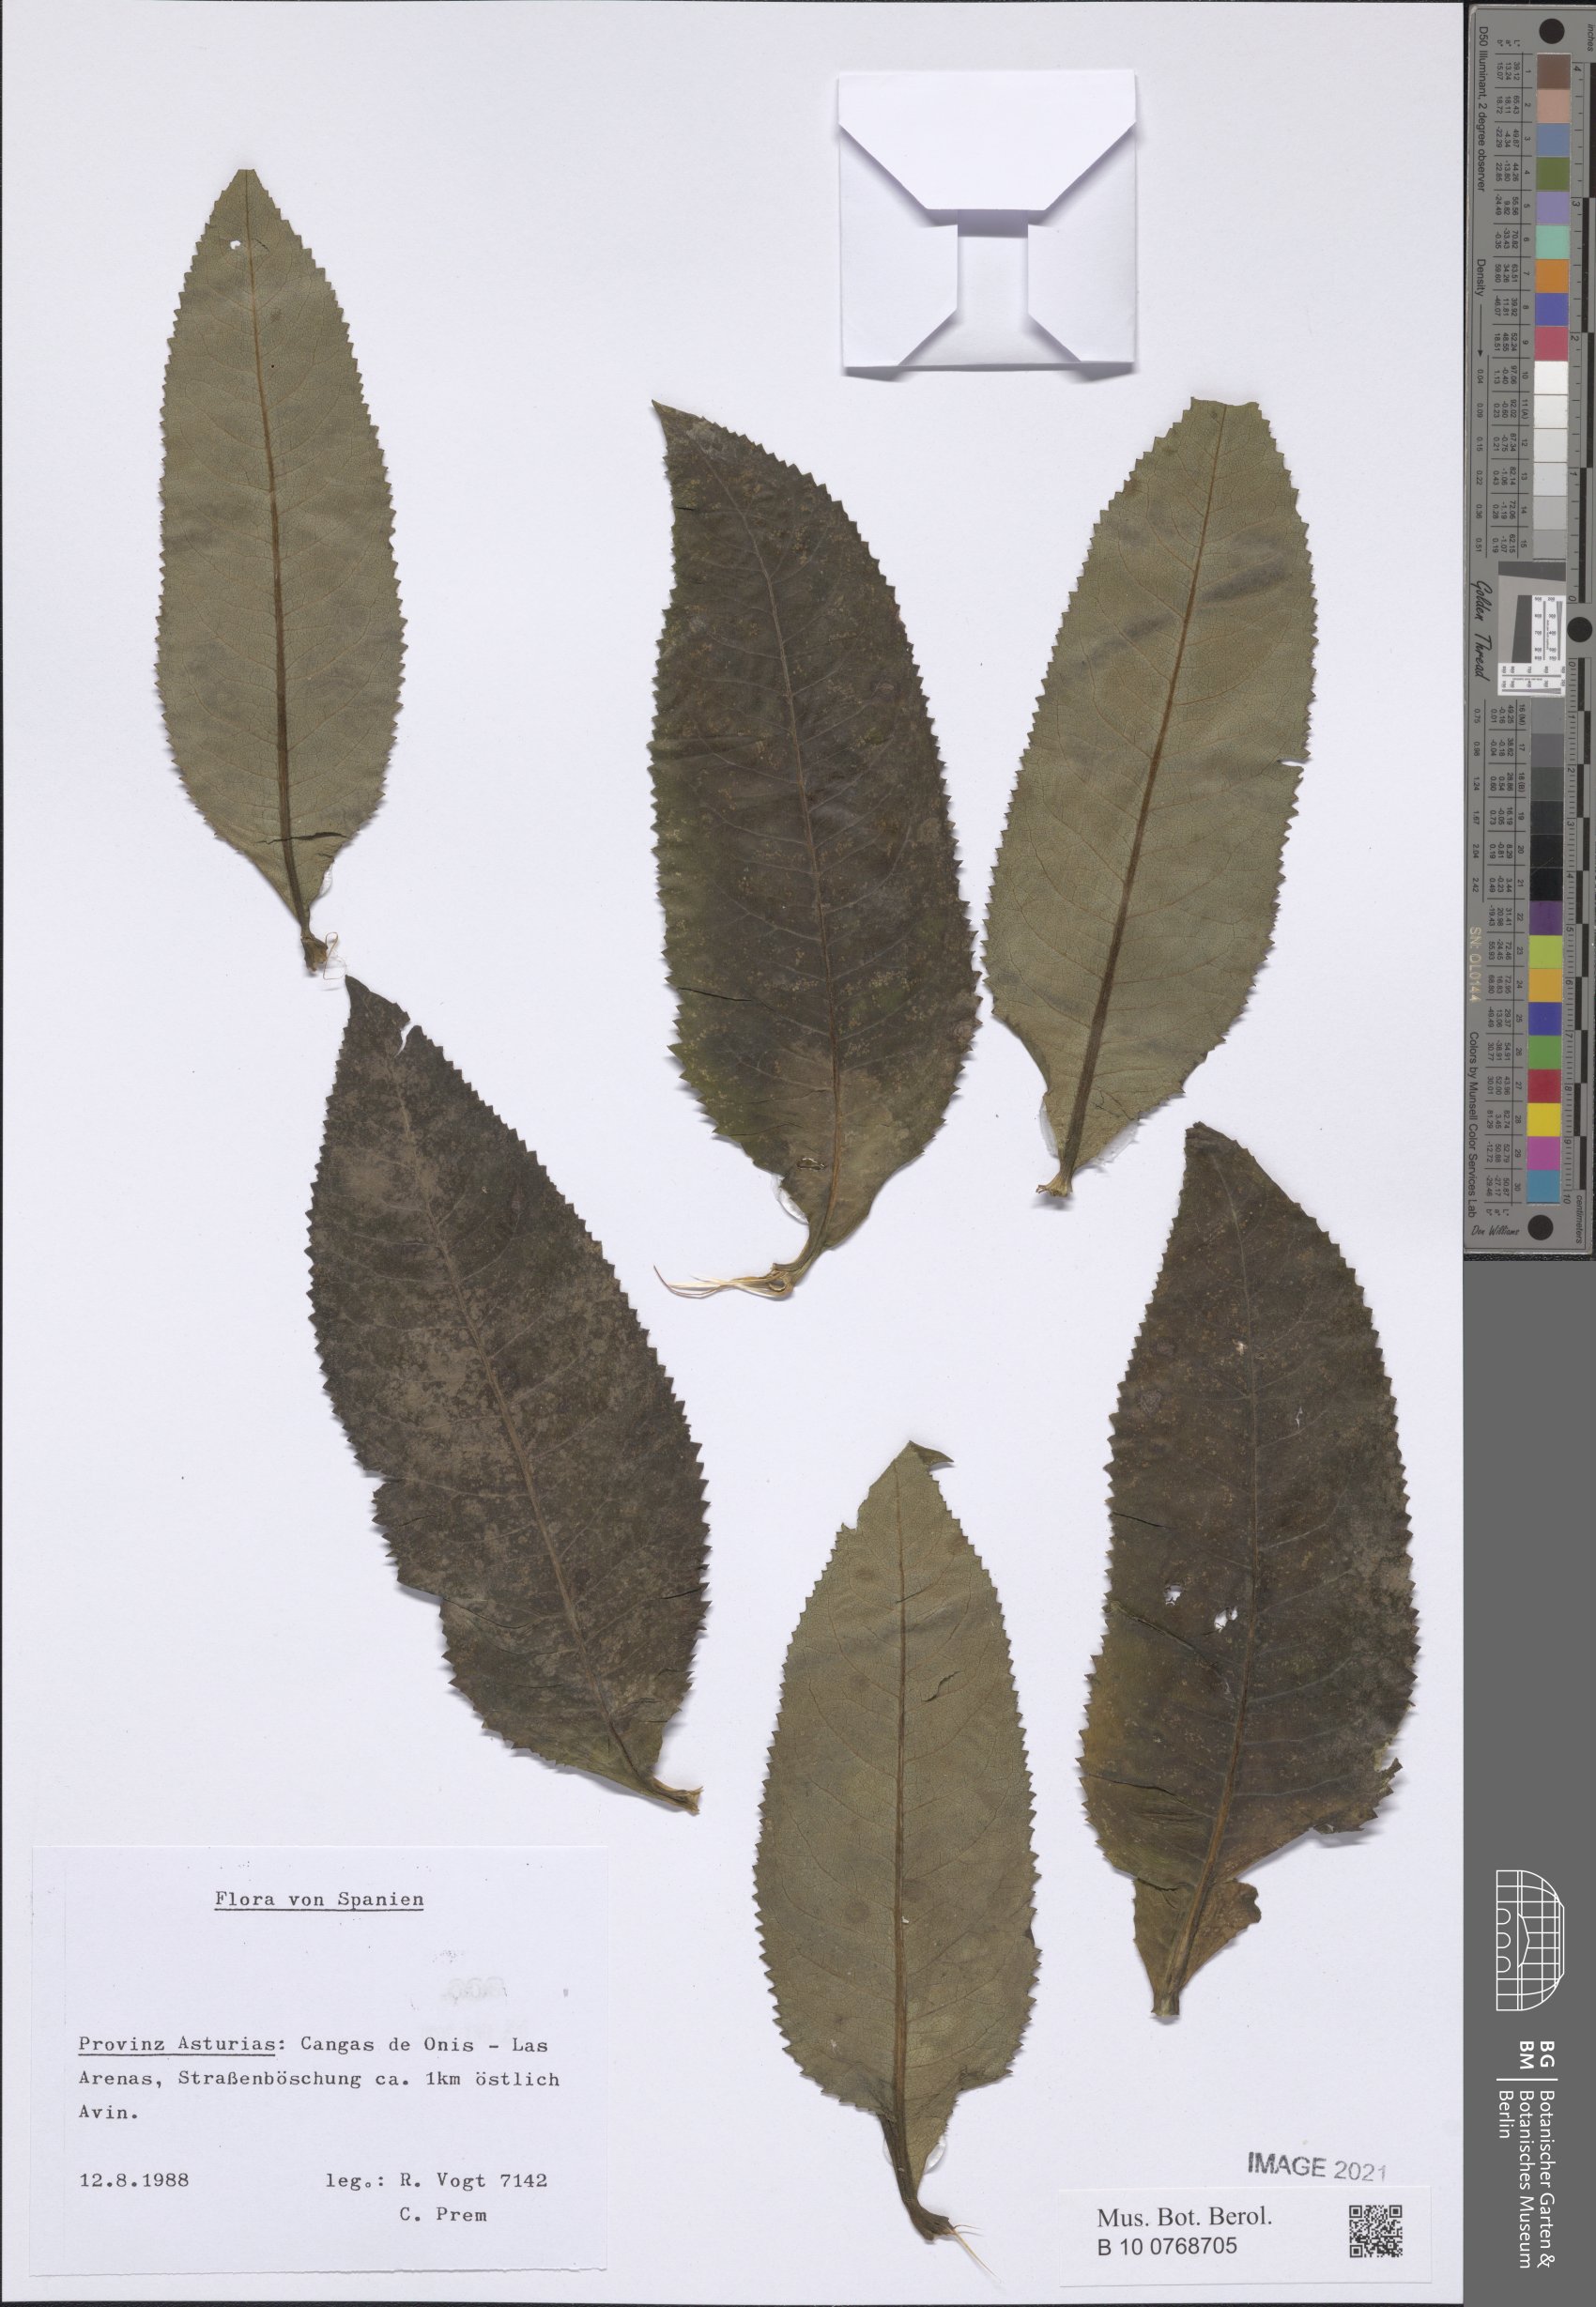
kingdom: Plantae
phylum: Tracheophyta
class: Magnoliopsida
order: Asterales
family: Asteraceae
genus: Senecio
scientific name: Senecio
